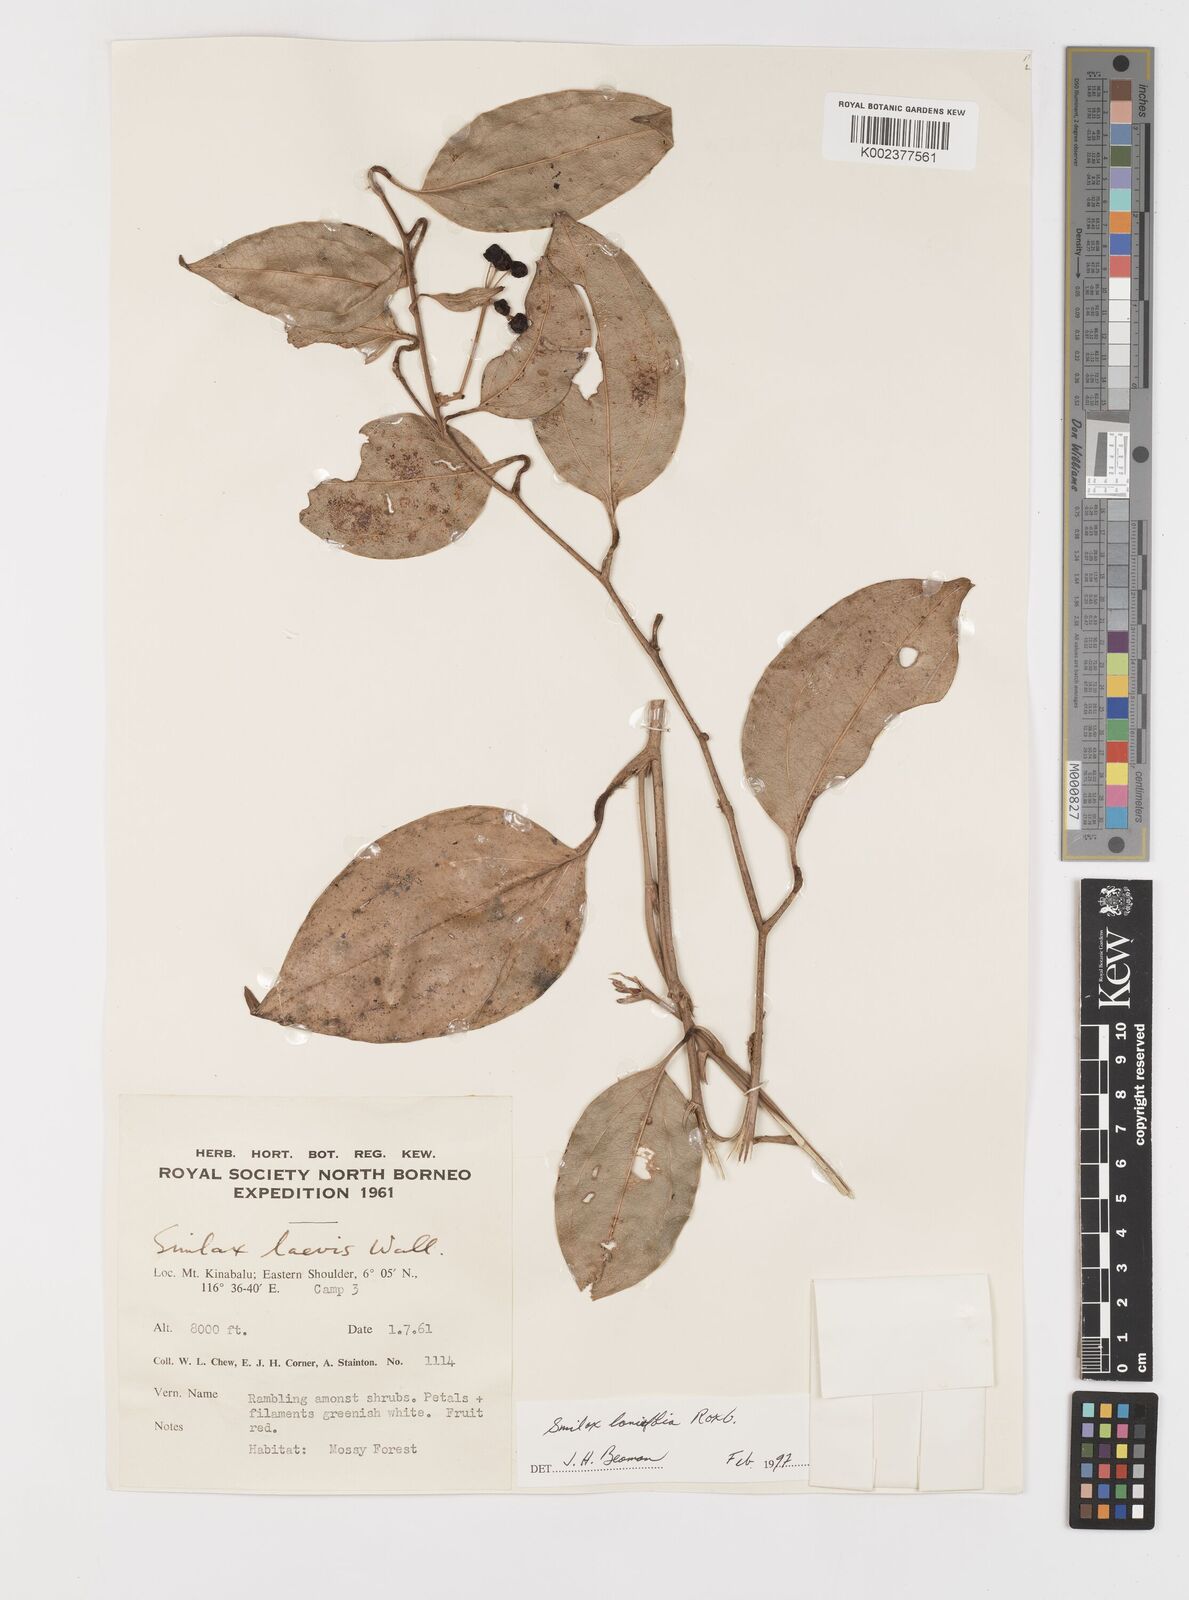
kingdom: Plantae
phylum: Tracheophyta
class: Liliopsida
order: Liliales
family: Smilacaceae
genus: Smilax
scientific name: Smilax lanceifolia
